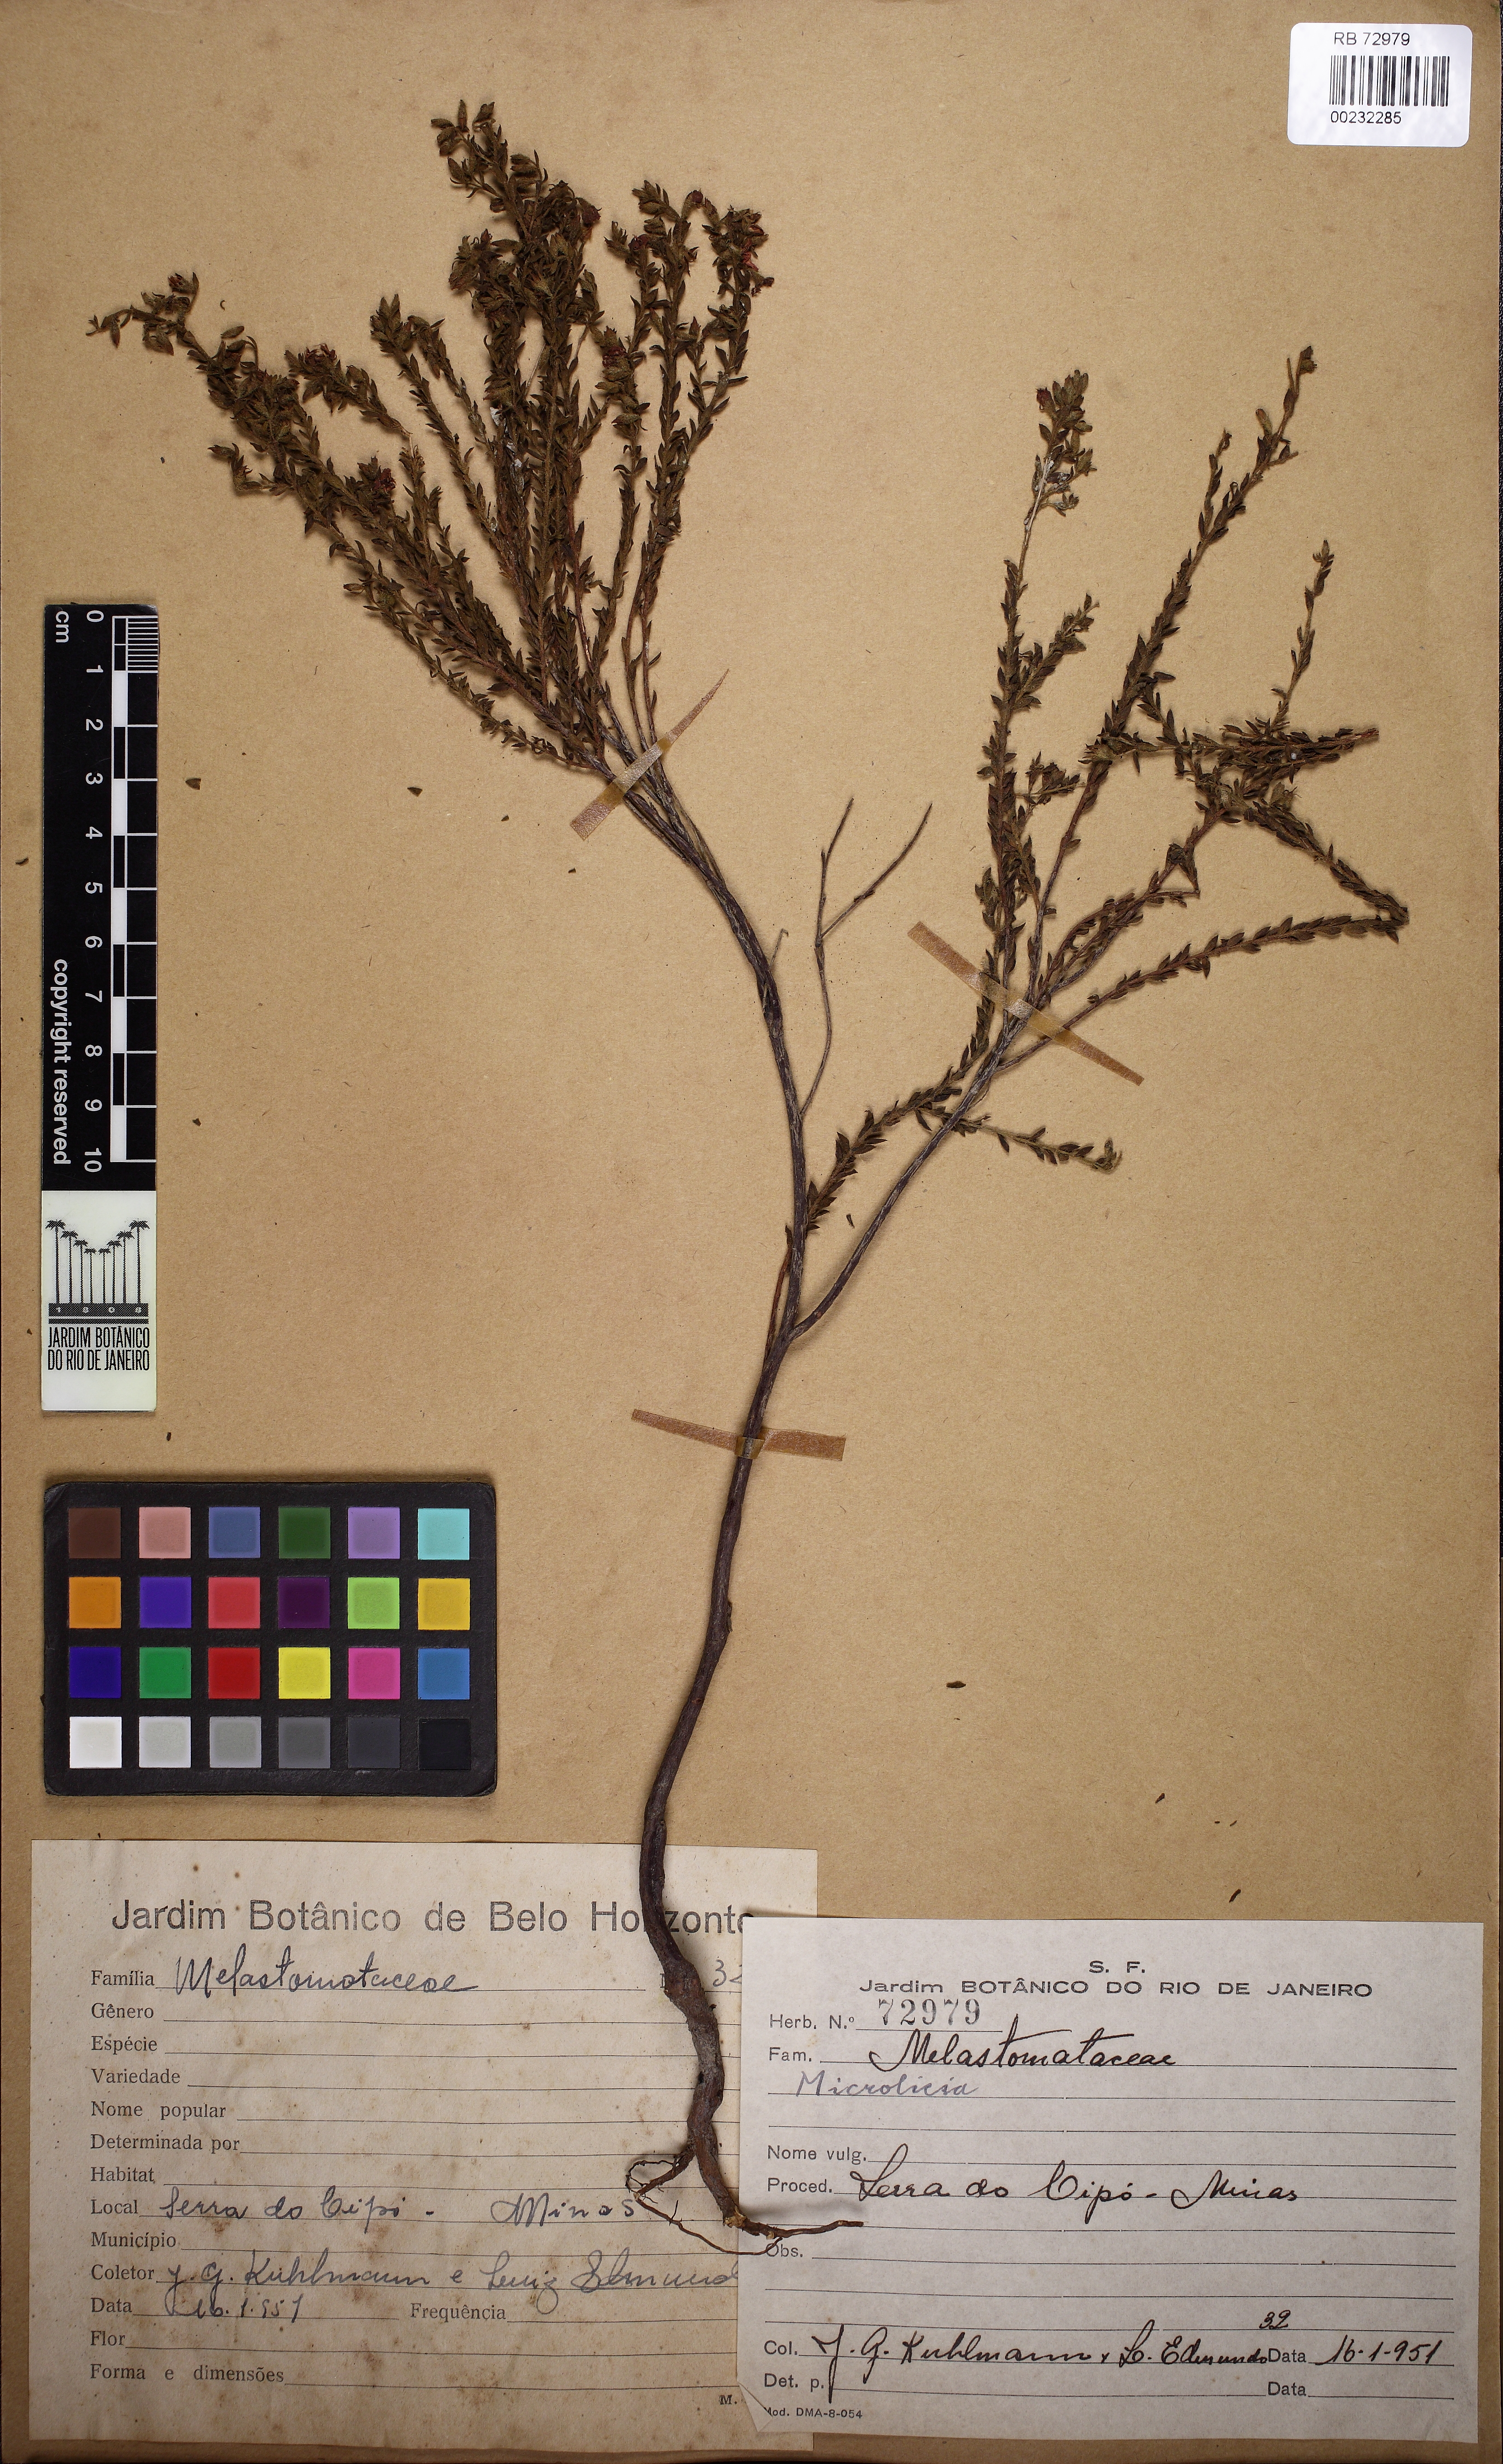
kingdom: Plantae
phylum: Tracheophyta
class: Magnoliopsida
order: Myrtales
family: Melastomataceae
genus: Microlicia
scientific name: Microlicia hirticalyx
